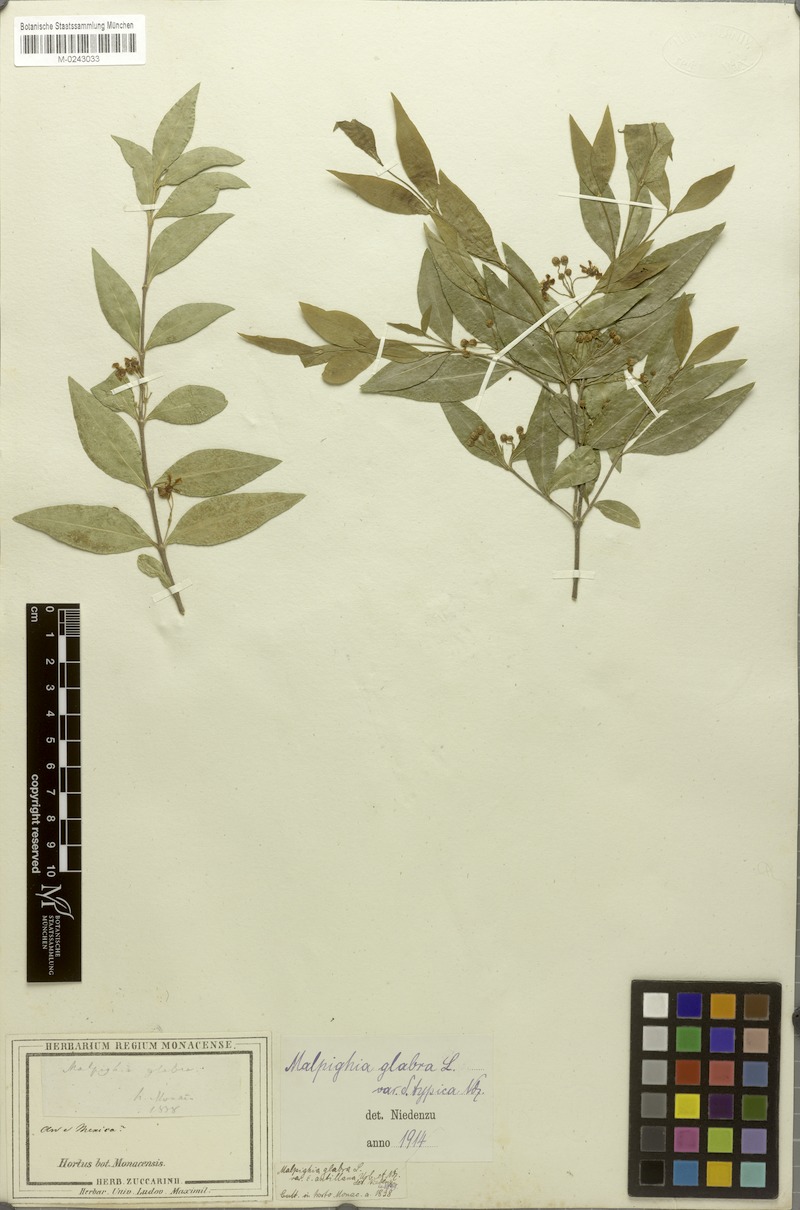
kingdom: Plantae
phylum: Tracheophyta
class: Magnoliopsida
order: Malpighiales
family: Malpighiaceae
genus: Malpighia
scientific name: Malpighia glabra
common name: Barbados cherry
